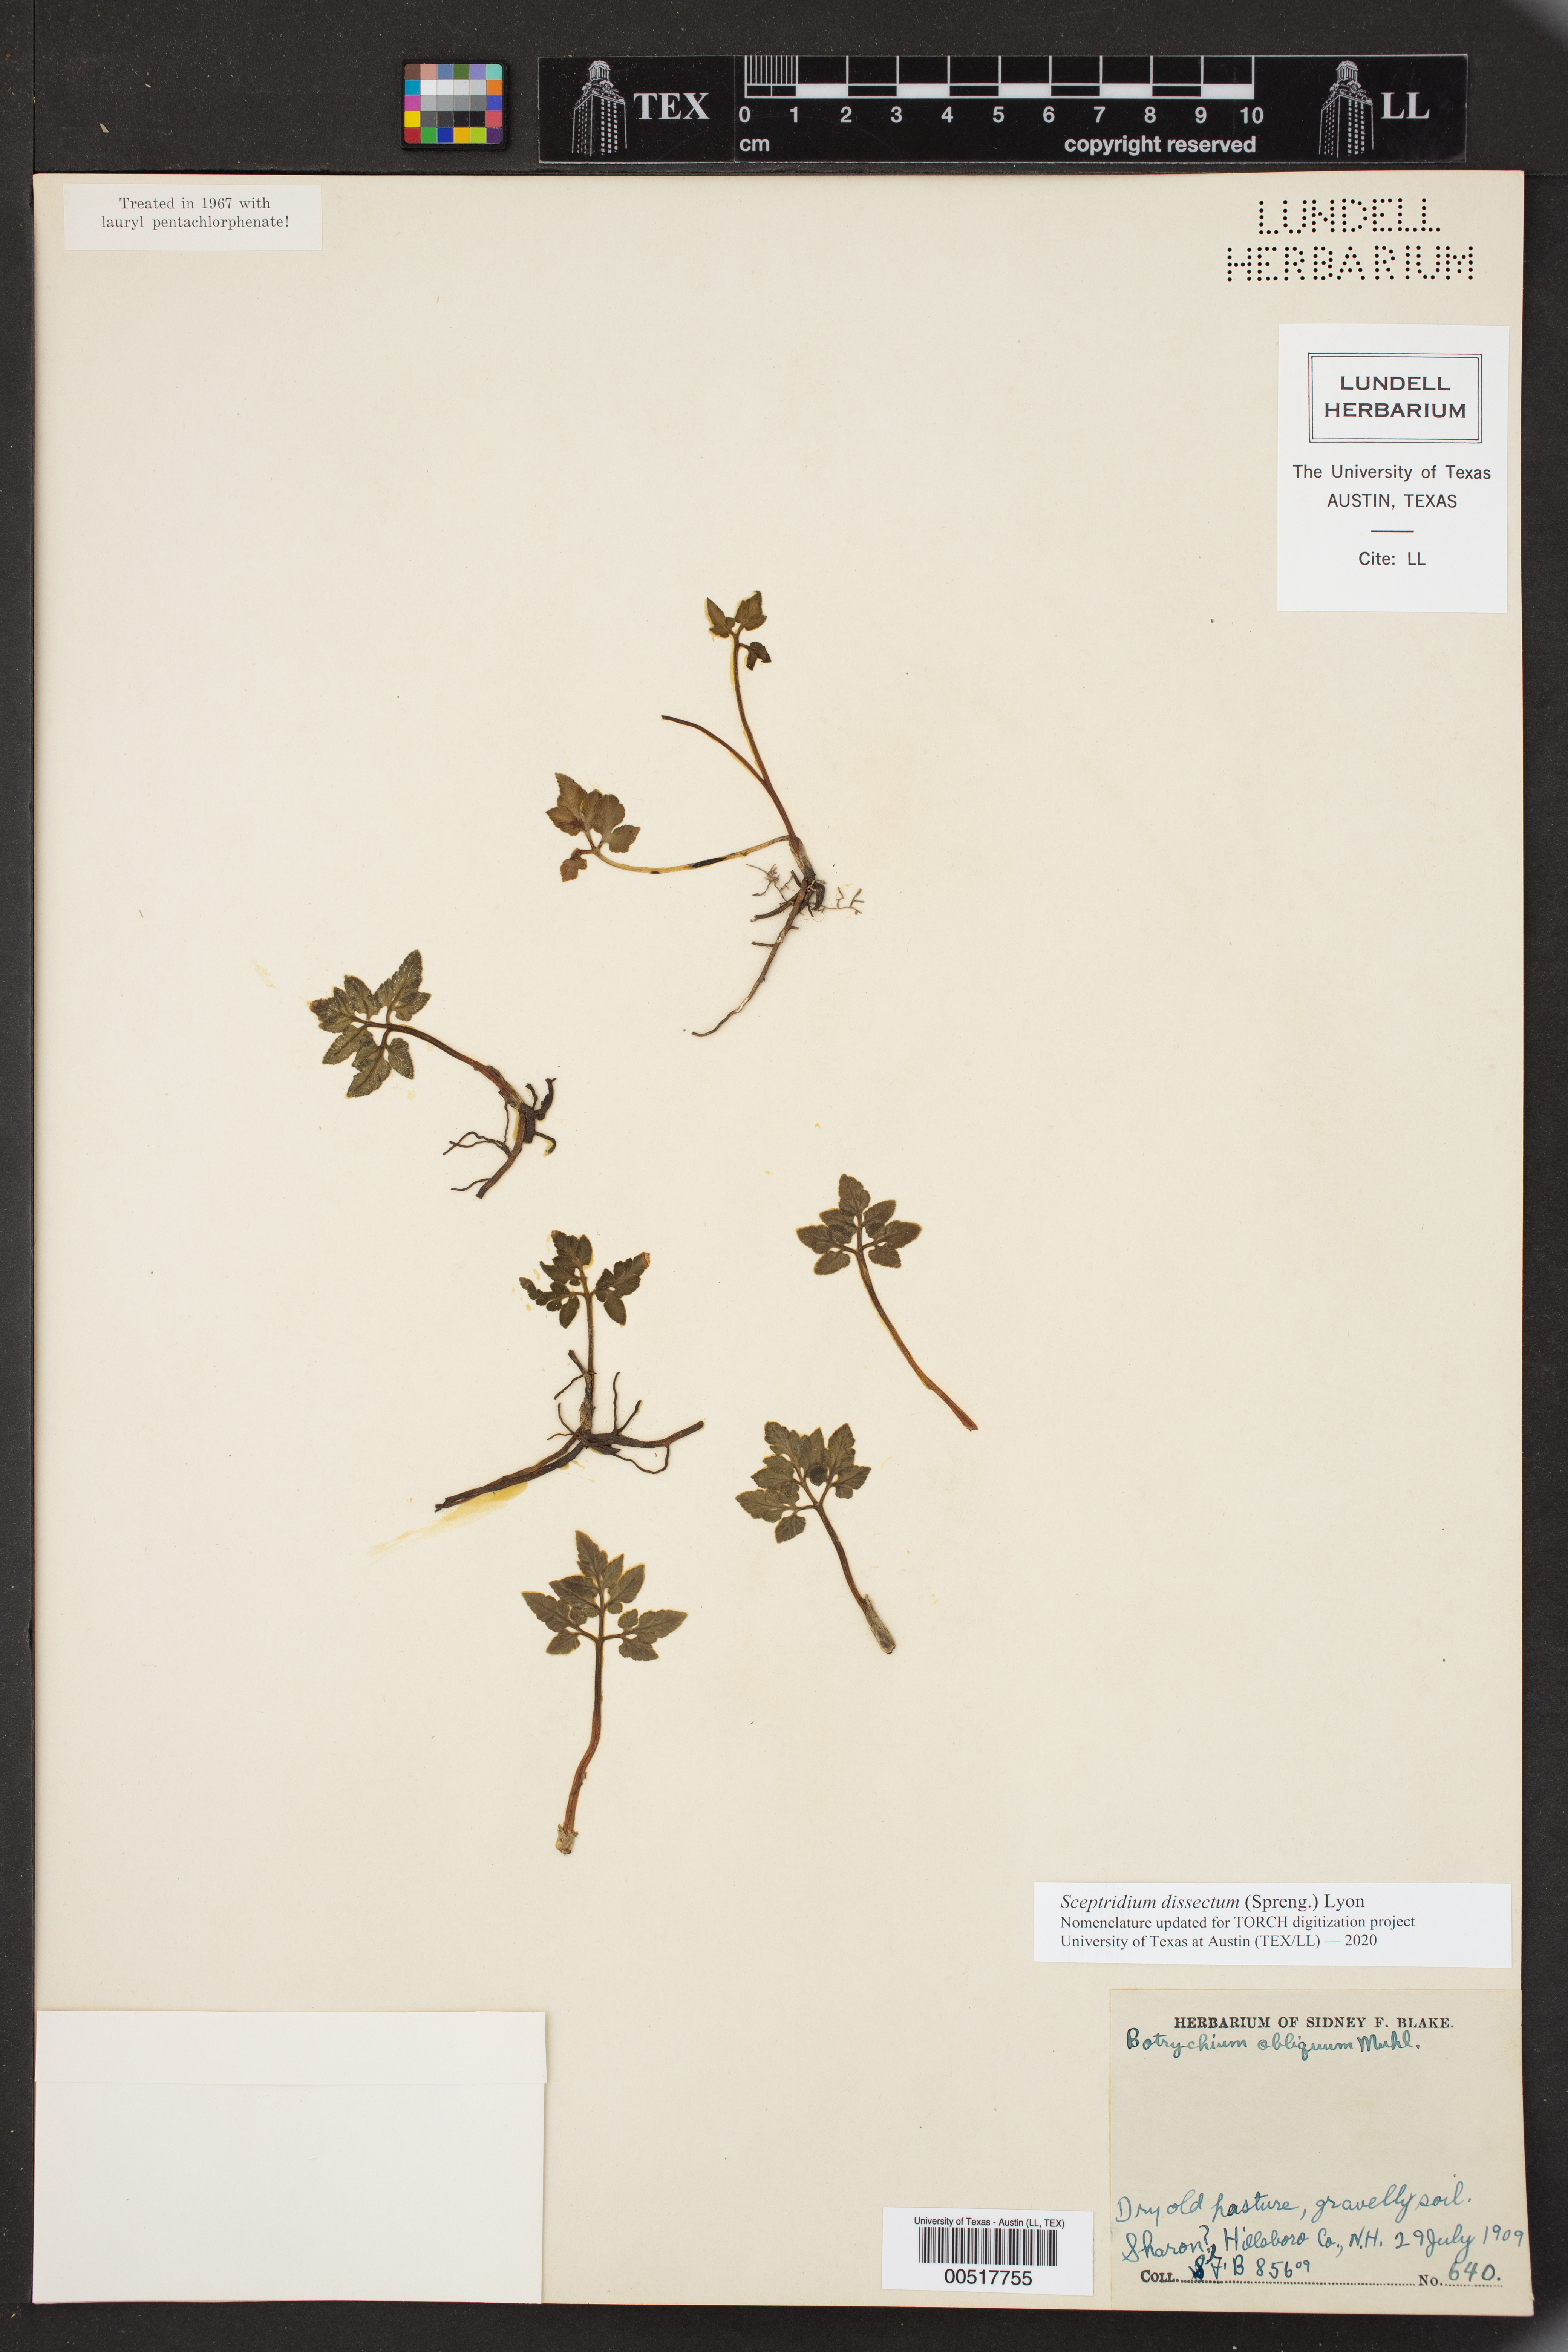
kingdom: Plantae
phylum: Tracheophyta
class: Polypodiopsida
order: Ophioglossales
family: Ophioglossaceae
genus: Sceptridium
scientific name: Sceptridium dissectum
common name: Cut-leaved grapefern
